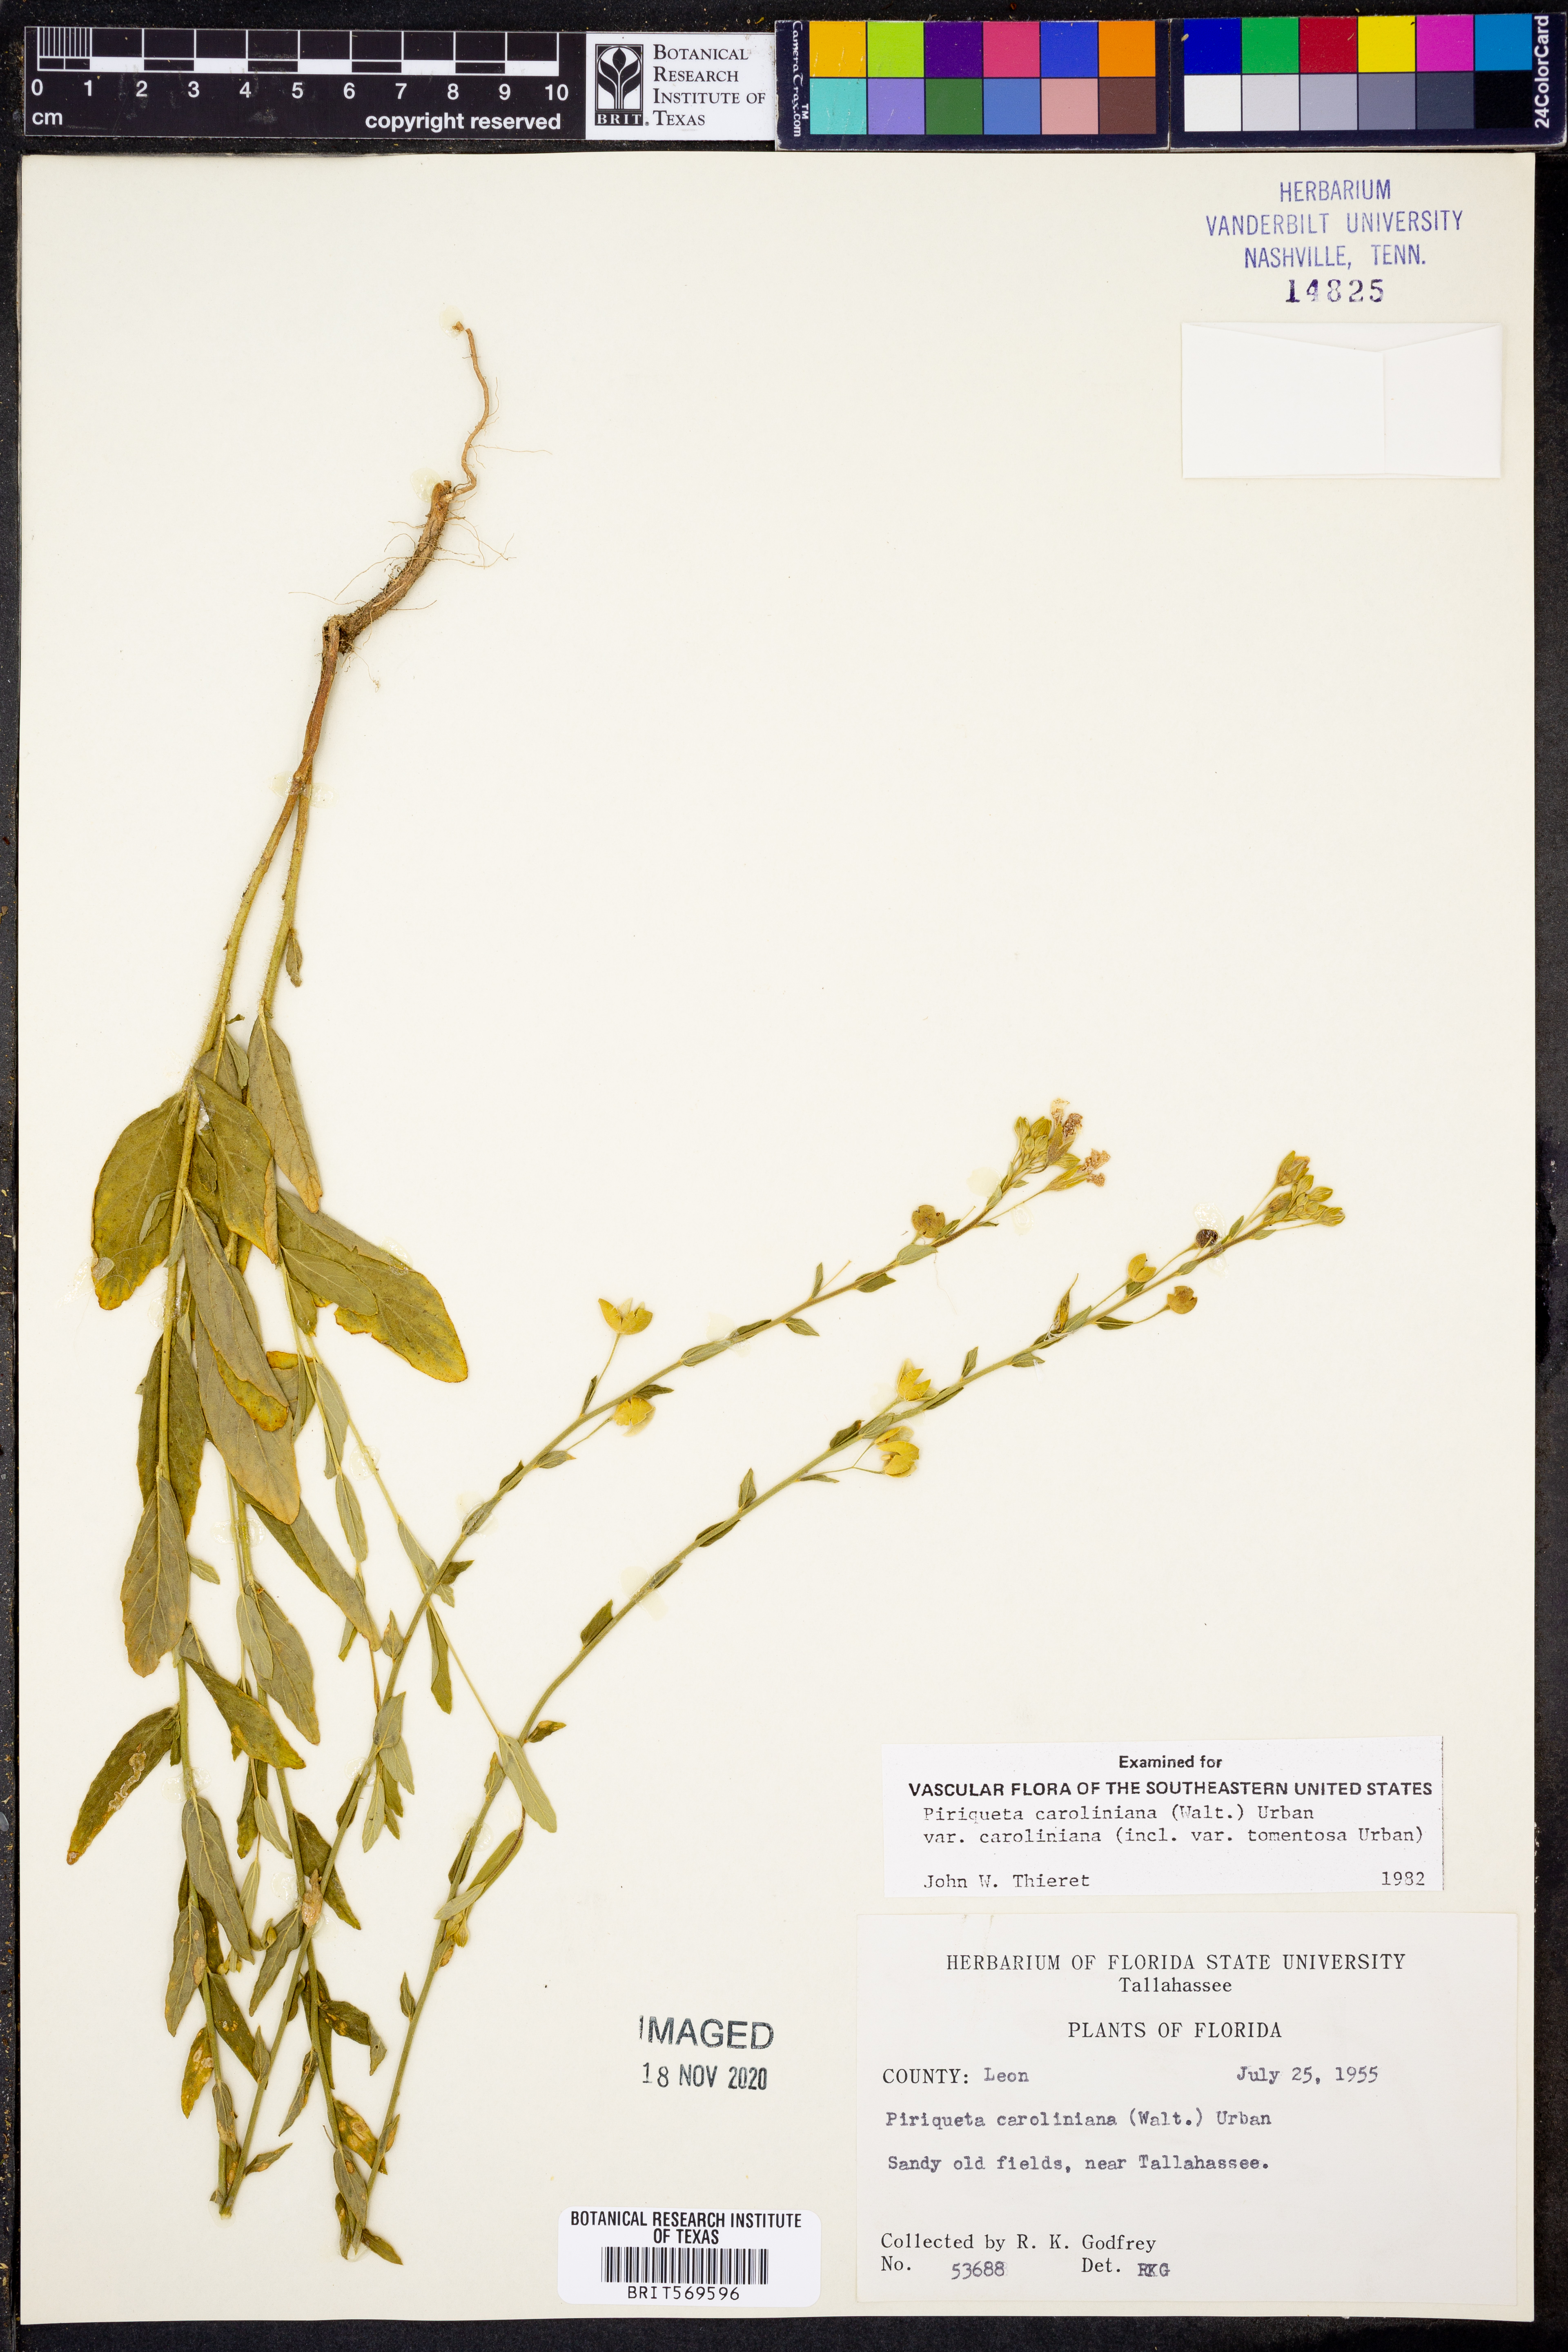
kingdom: Plantae
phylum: Tracheophyta
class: Magnoliopsida
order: Malpighiales
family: Turneraceae
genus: Piriqueta
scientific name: Piriqueta cistoides
